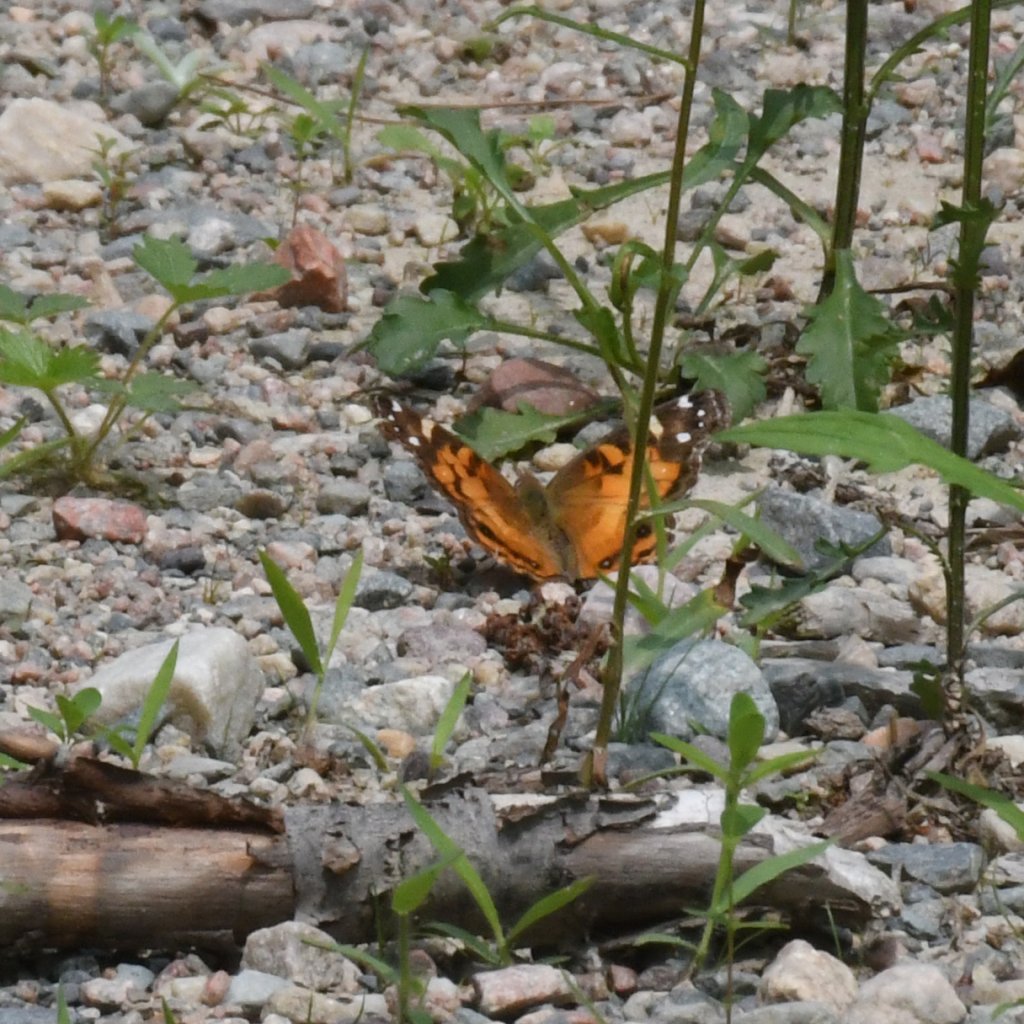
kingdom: Animalia
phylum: Arthropoda
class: Insecta
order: Lepidoptera
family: Nymphalidae
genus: Vanessa
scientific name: Vanessa virginiensis
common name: American Lady
